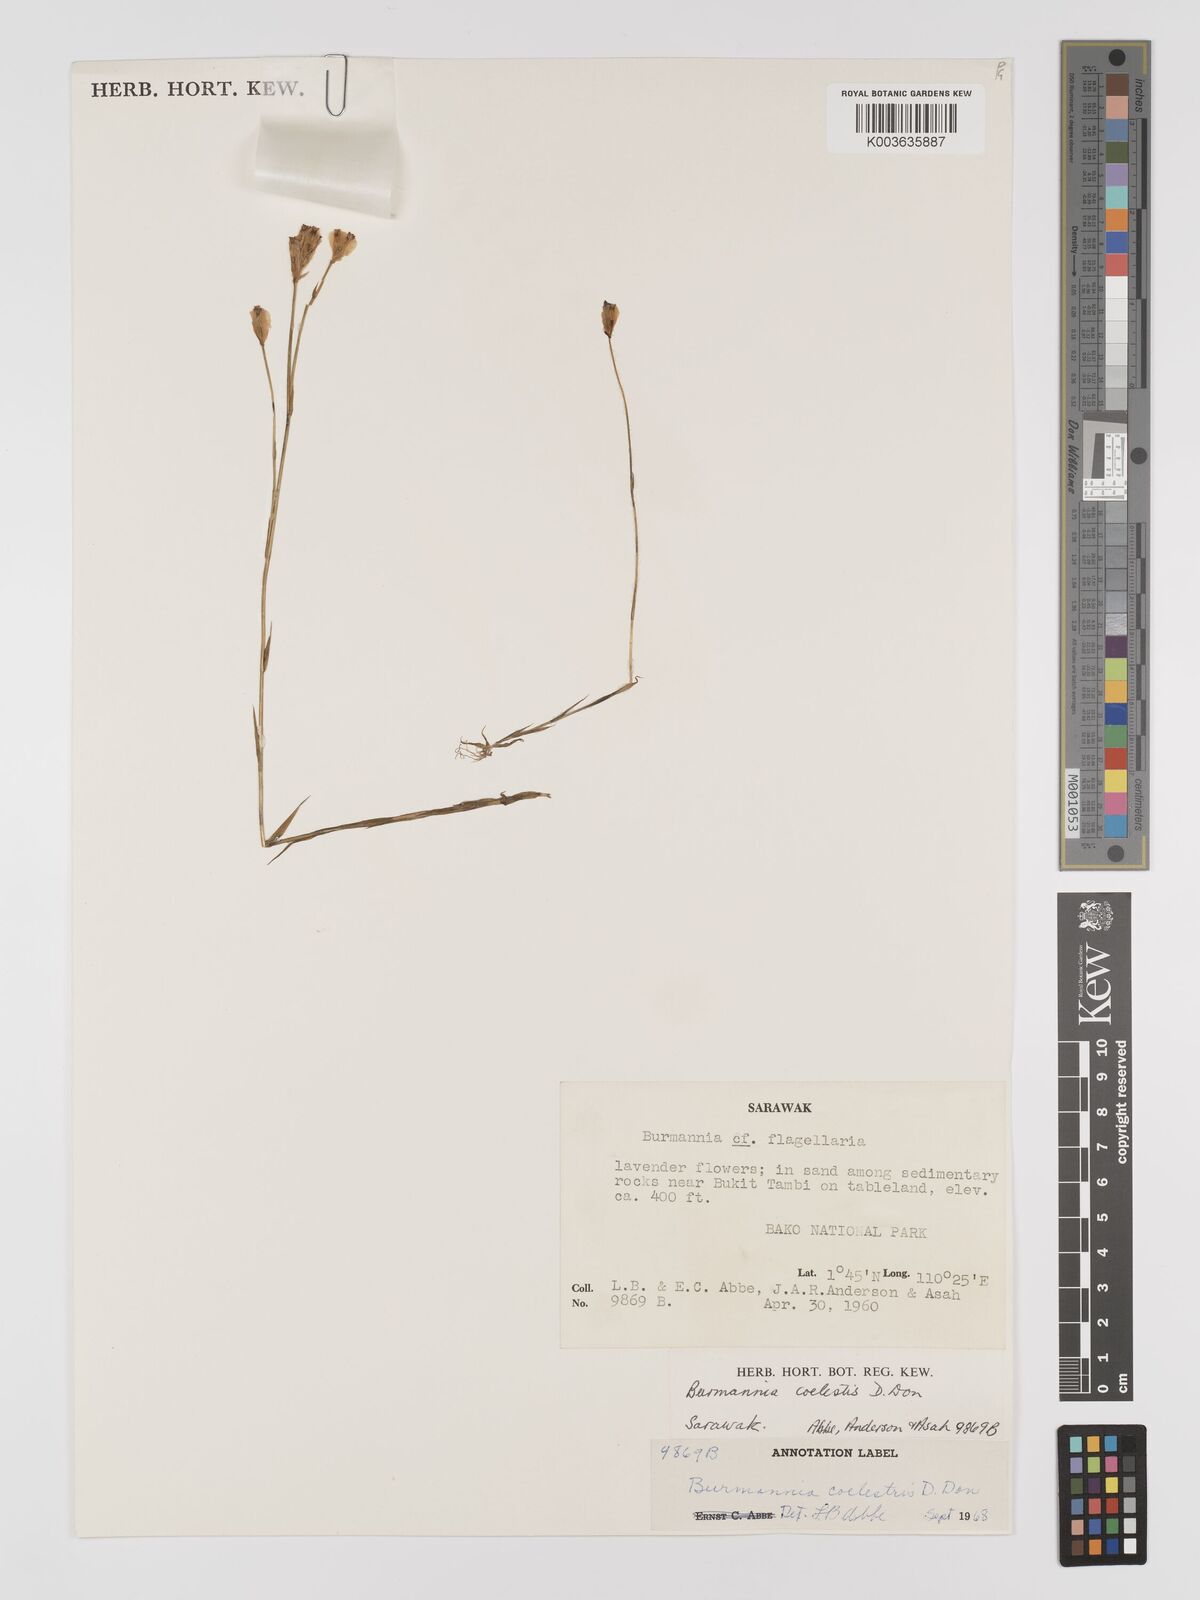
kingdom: Plantae
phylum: Tracheophyta
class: Liliopsida
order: Dioscoreales
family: Burmanniaceae
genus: Burmannia
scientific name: Burmannia coelestis
